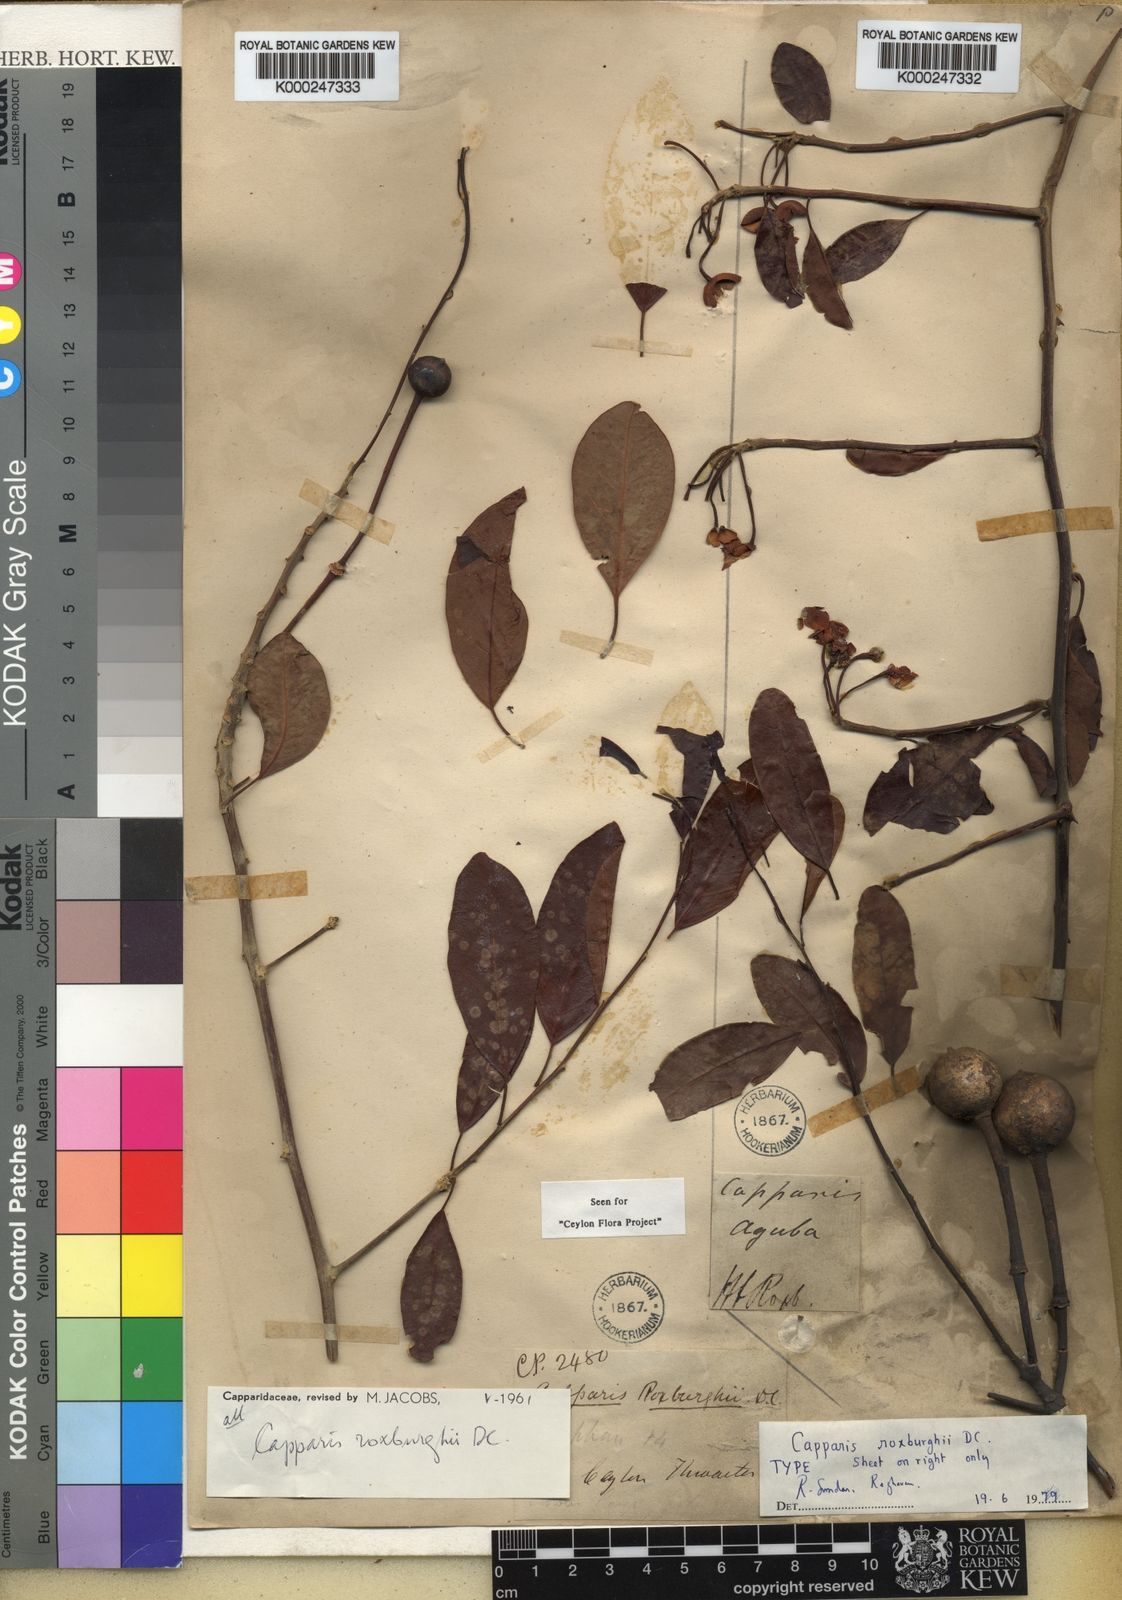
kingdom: Plantae
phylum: Tracheophyta
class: Magnoliopsida
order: Brassicales
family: Capparaceae
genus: Capparis
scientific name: Capparis roxburghii
